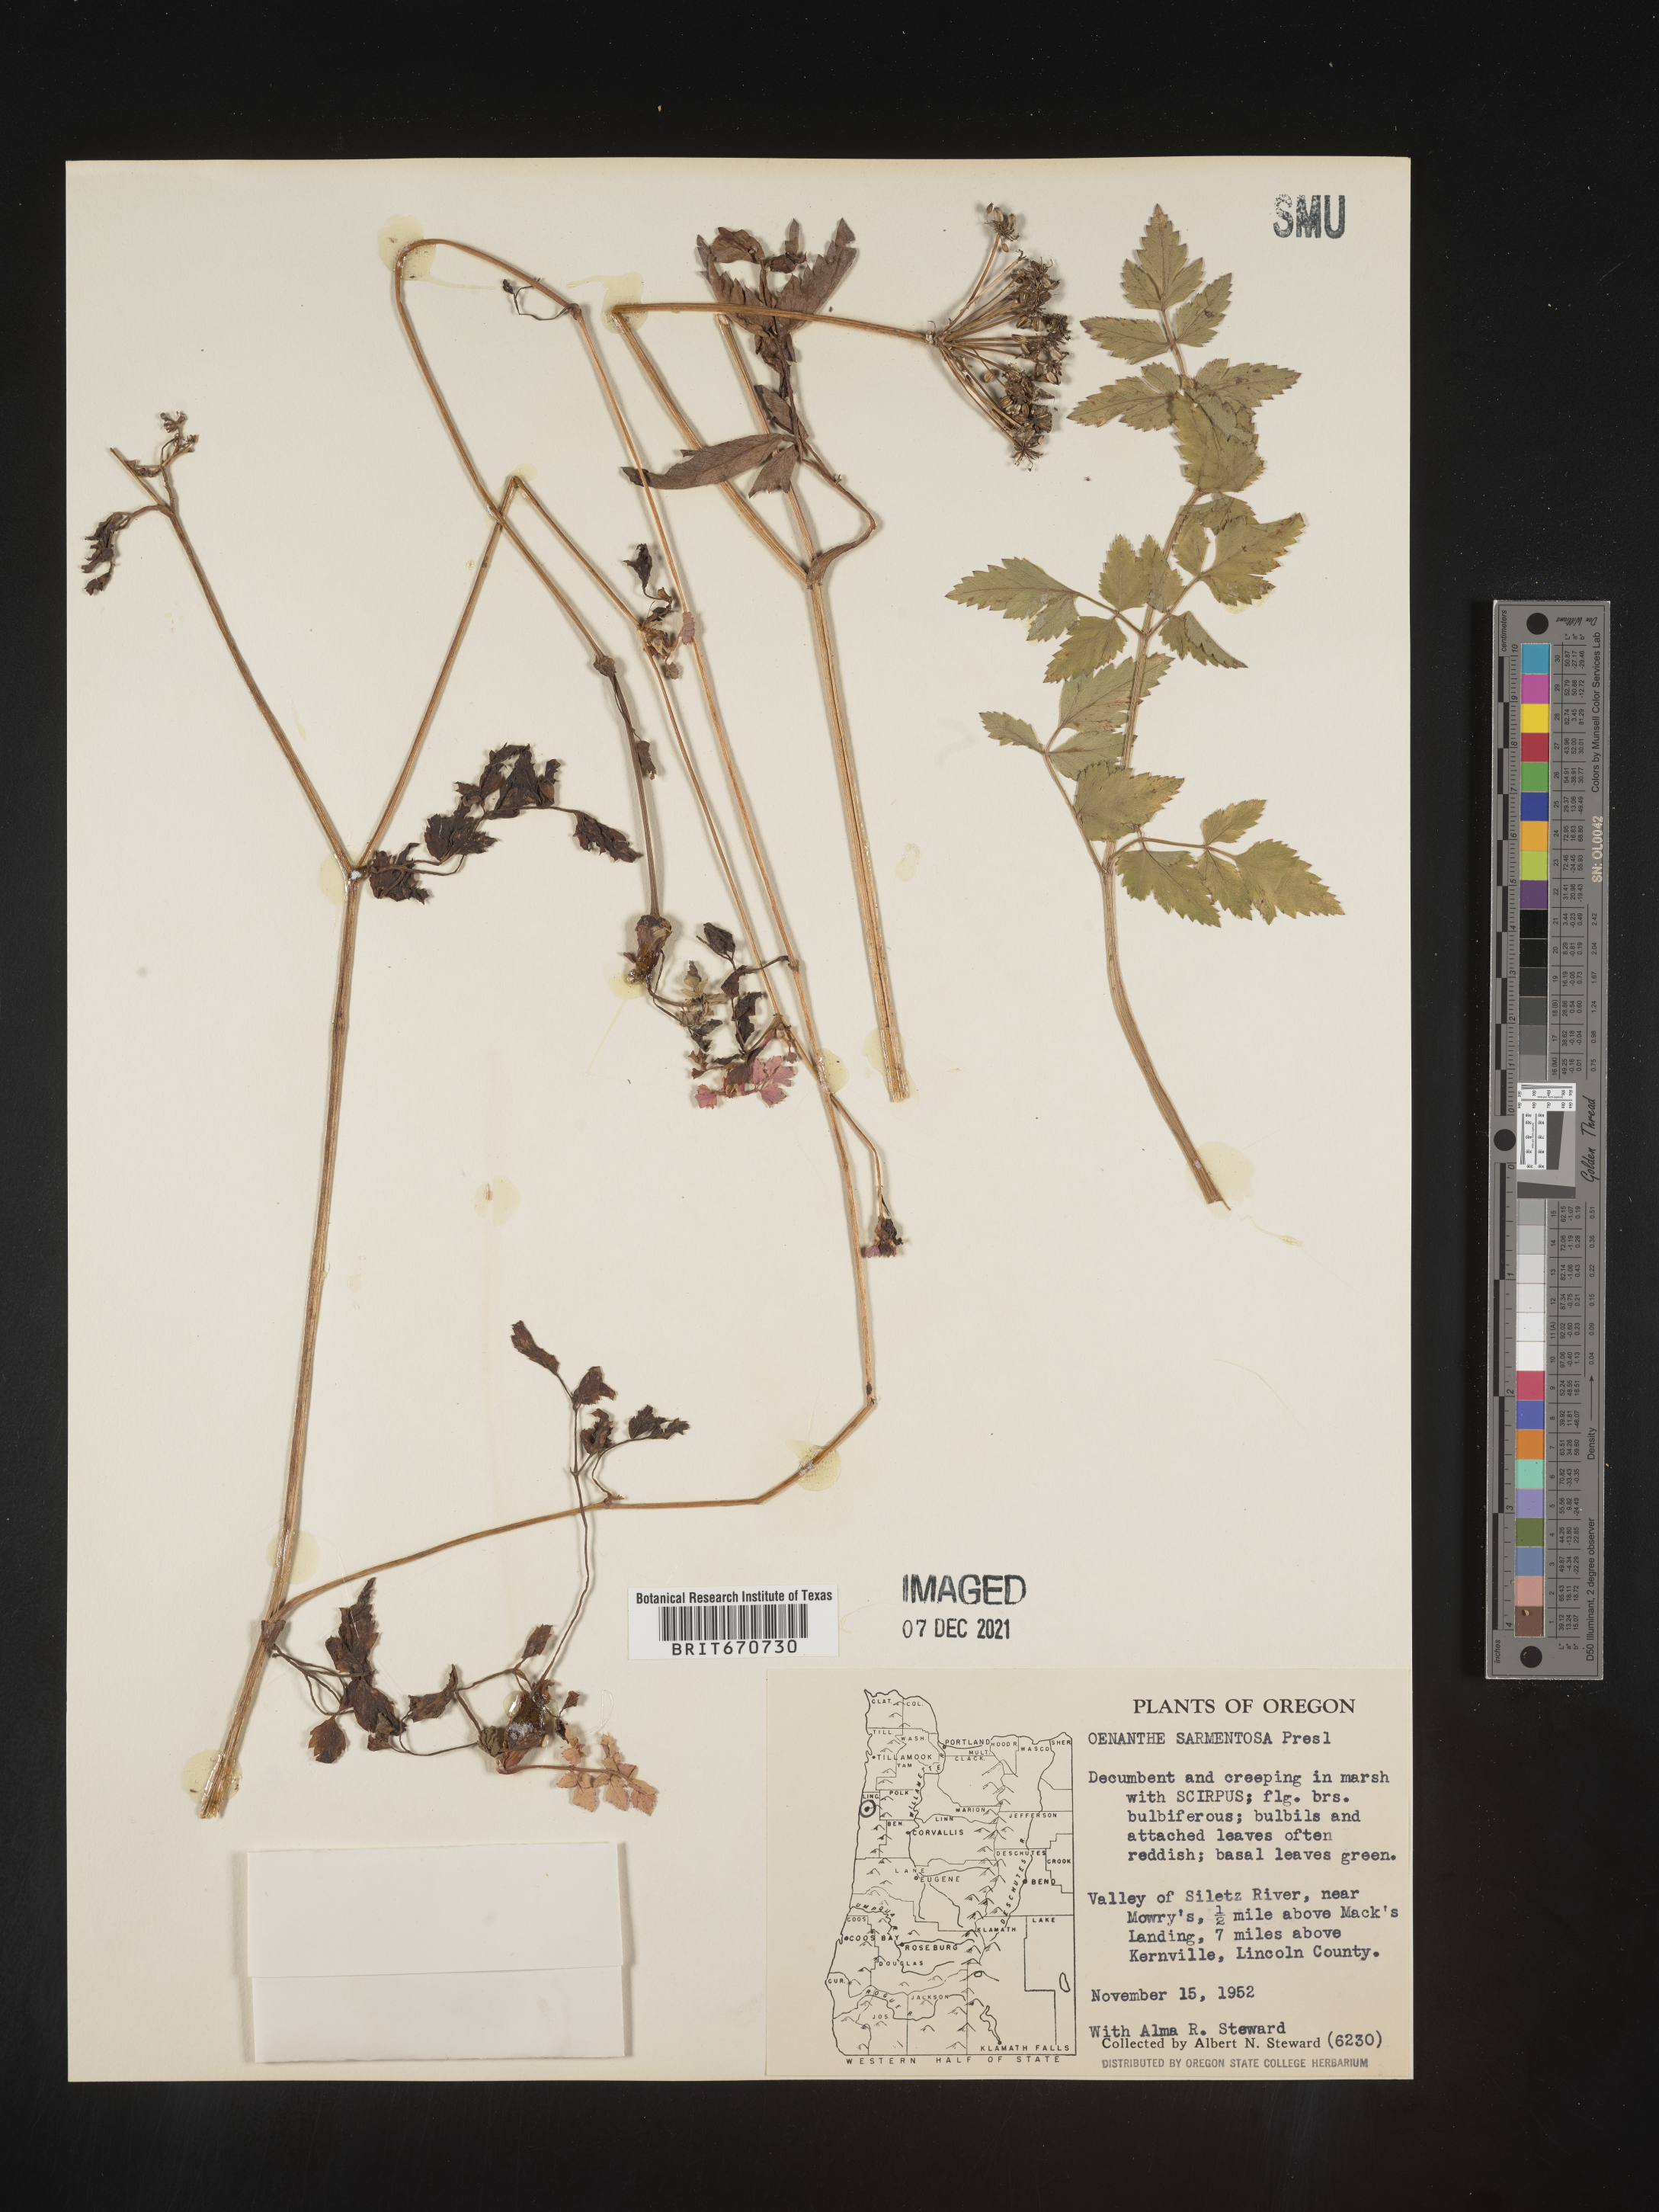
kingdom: Plantae
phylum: Tracheophyta
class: Magnoliopsida
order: Apiales
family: Apiaceae
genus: Oenanthe
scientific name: Oenanthe
